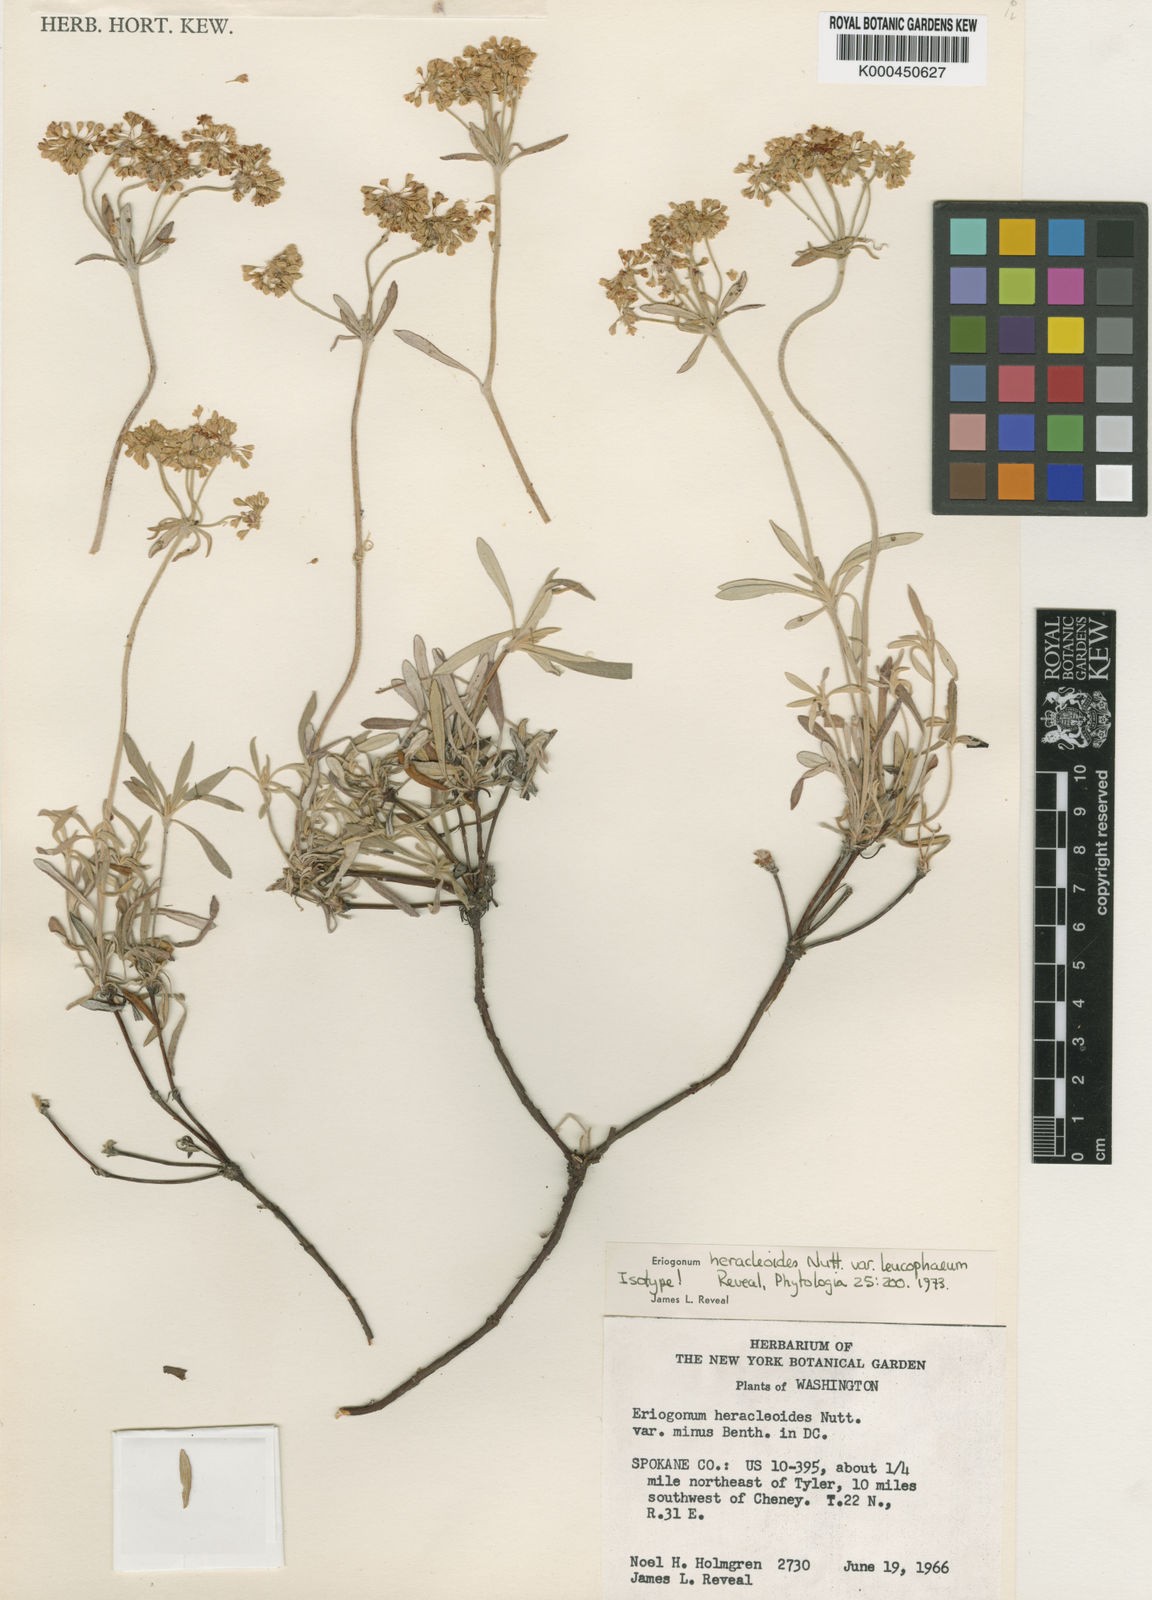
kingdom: Plantae
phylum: Tracheophyta
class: Magnoliopsida
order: Caryophyllales
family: Polygonaceae
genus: Eriogonum
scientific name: Eriogonum heracleoides
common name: Wyeth's buckwheat
